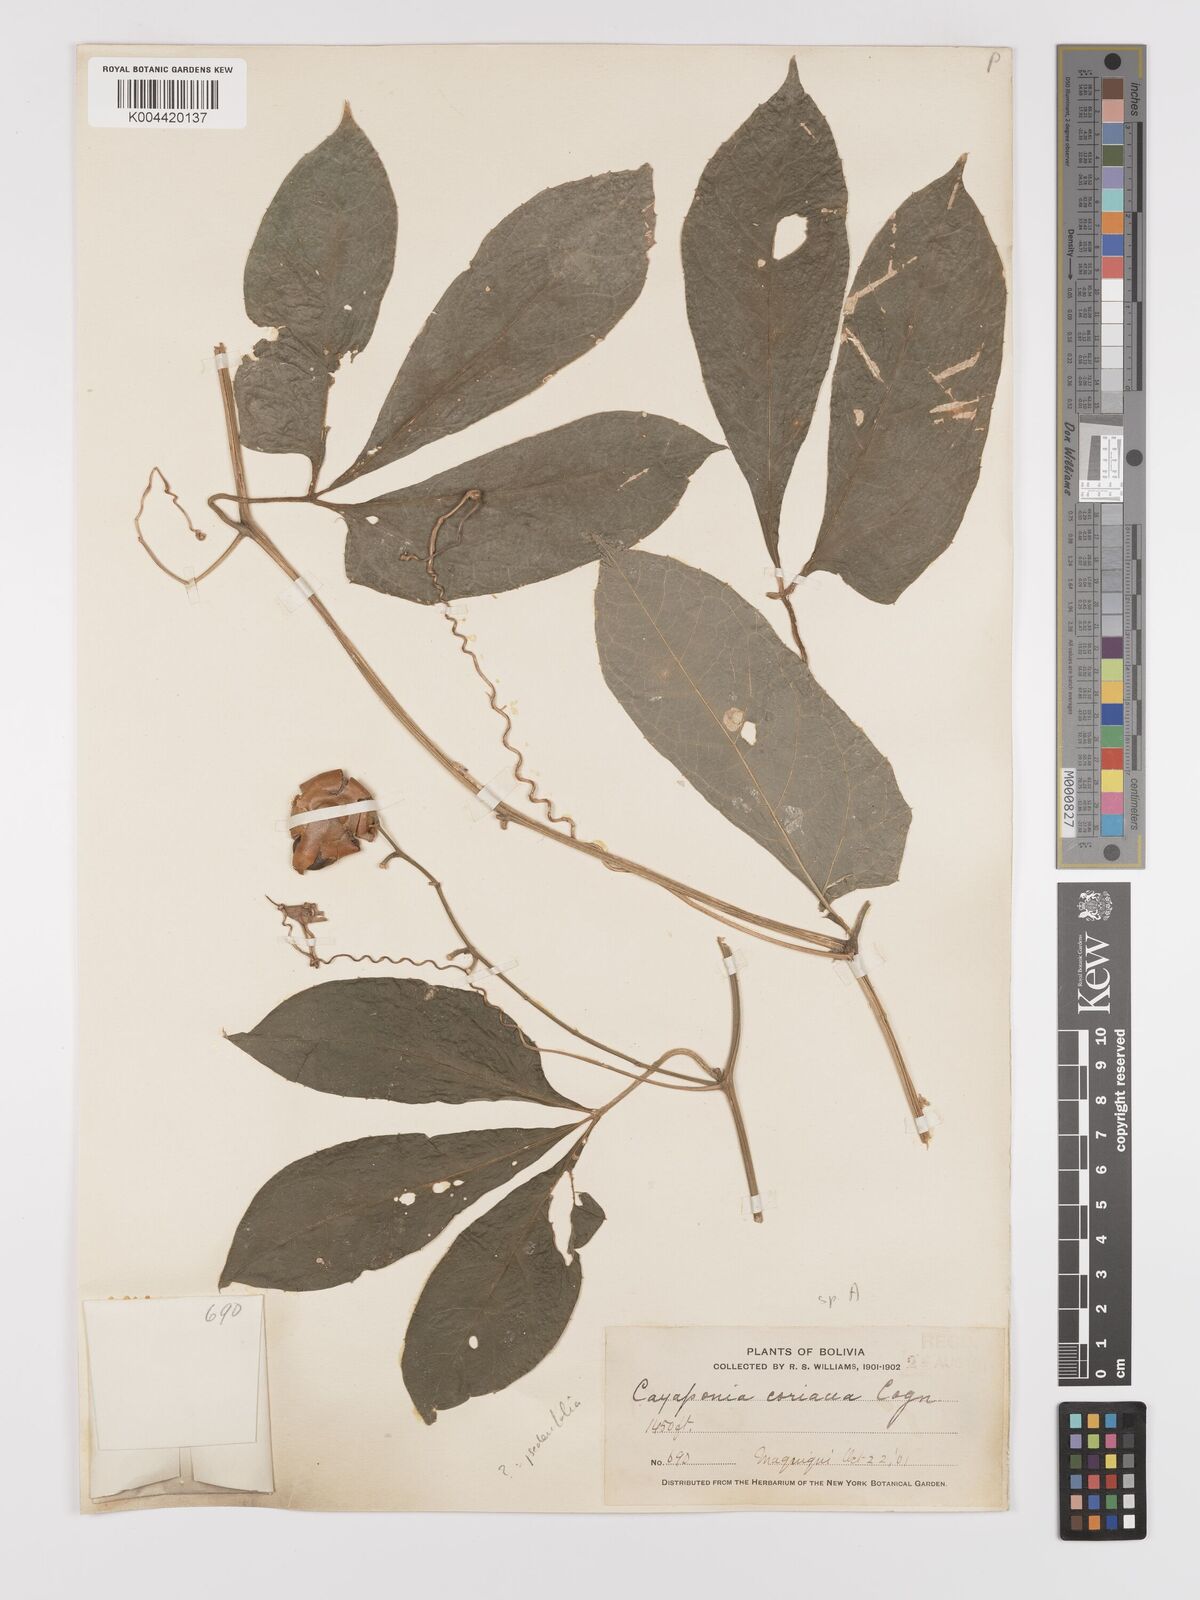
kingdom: Plantae
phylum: Tracheophyta
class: Magnoliopsida
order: Cucurbitales
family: Cucurbitaceae
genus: Cayaponia
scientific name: Cayaponia tubulosa
